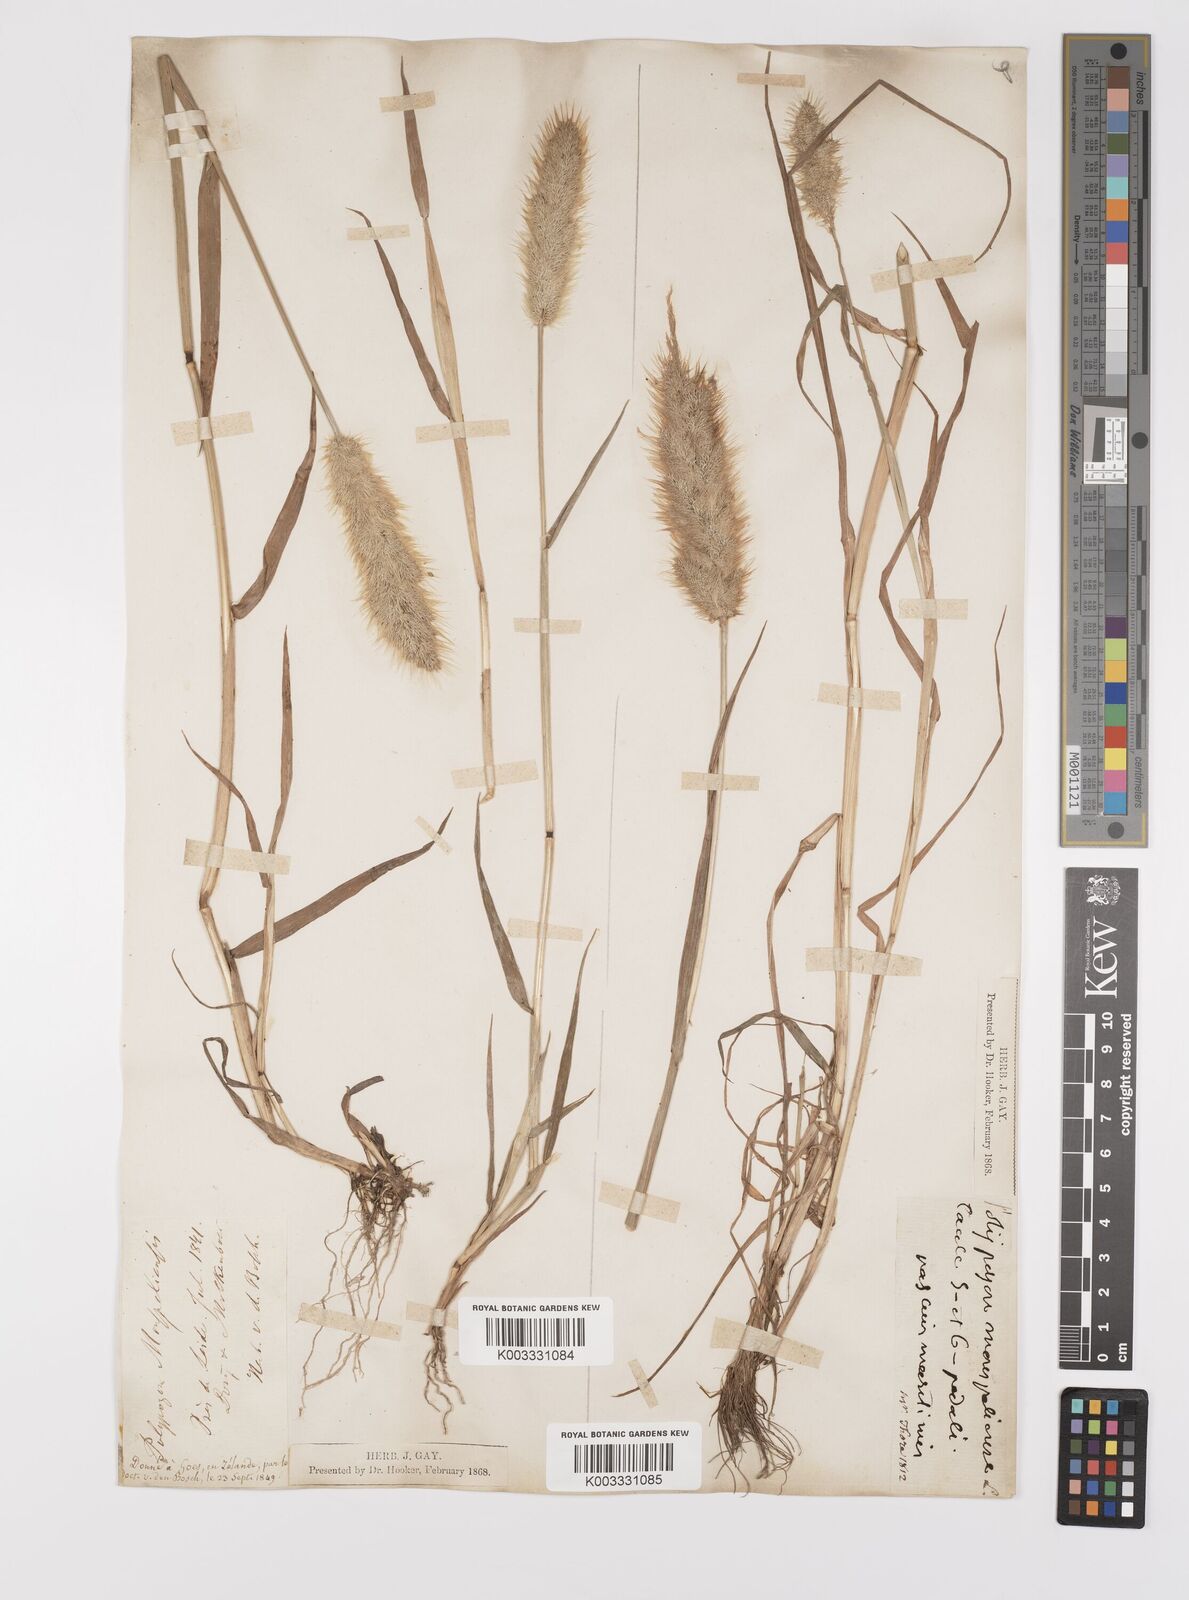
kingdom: Plantae
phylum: Tracheophyta
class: Liliopsida
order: Poales
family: Poaceae
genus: Polypogon
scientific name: Polypogon monspeliensis
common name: Annual rabbitsfoot grass
